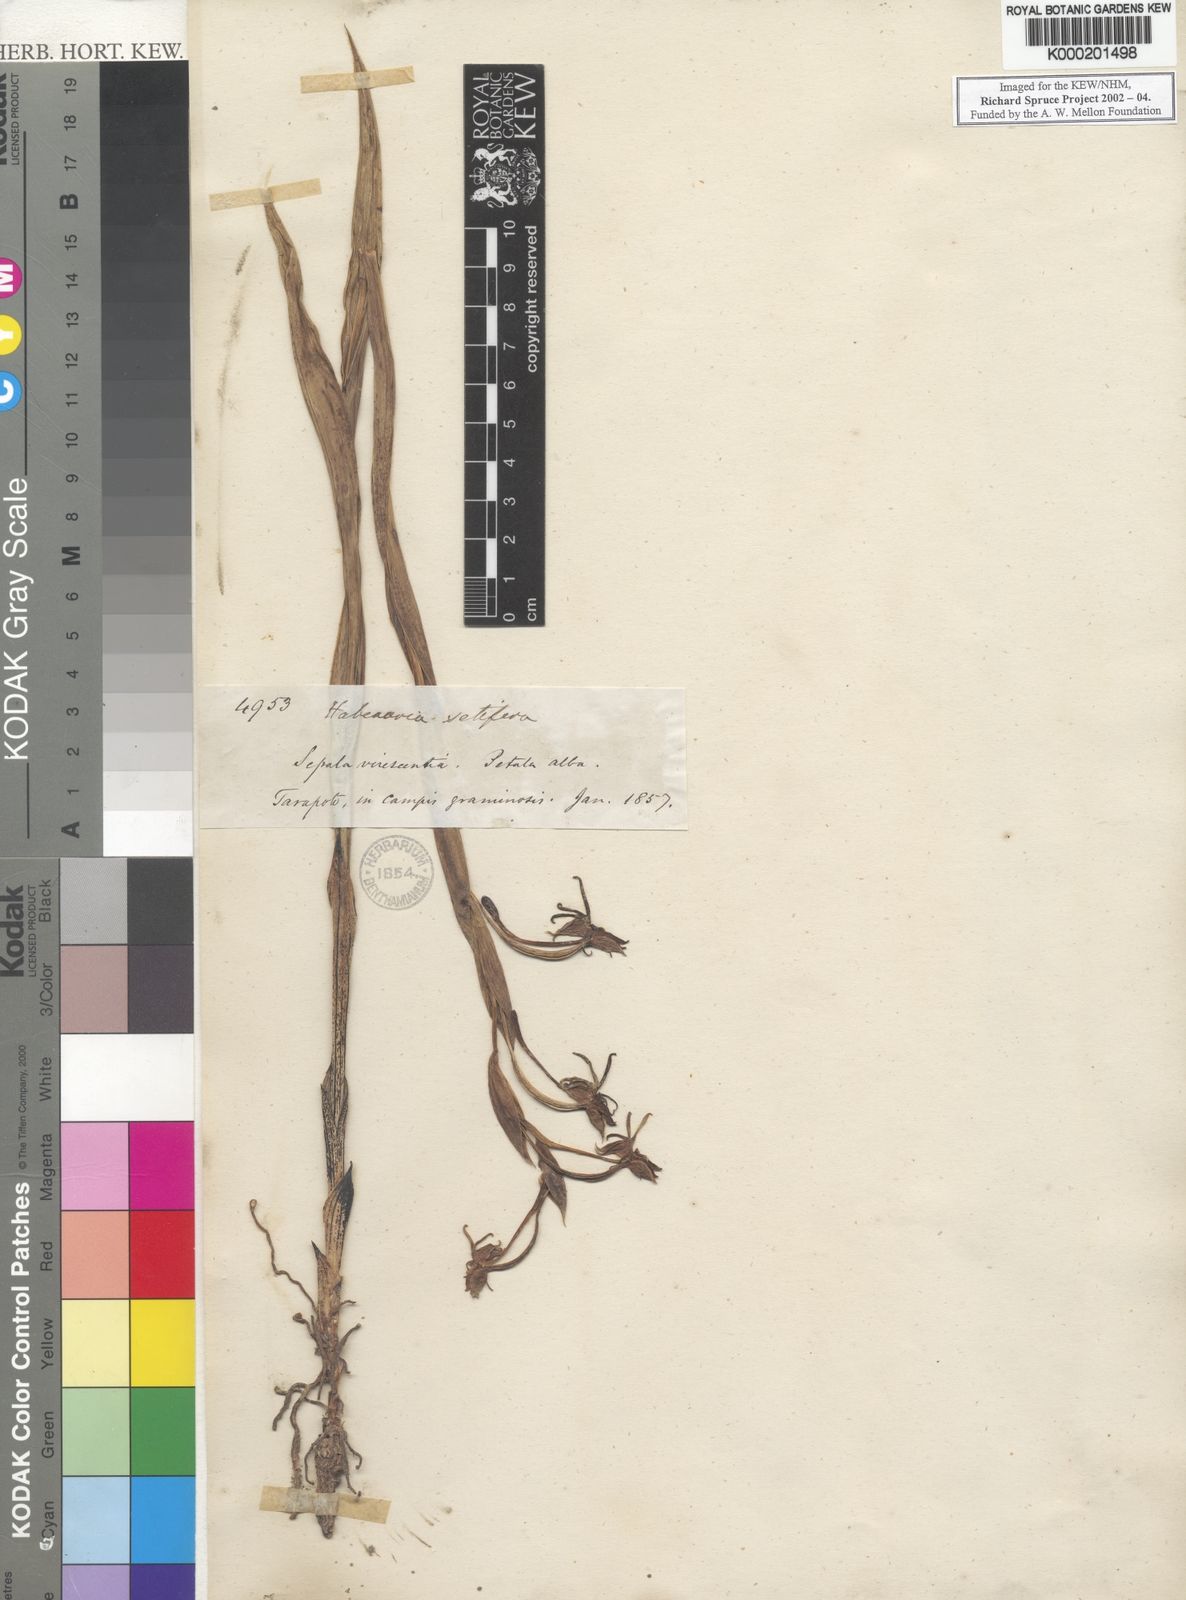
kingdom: Plantae
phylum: Tracheophyta
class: Liliopsida
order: Asparagales
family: Orchidaceae
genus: Habenaria
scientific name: Habenaria trifida
